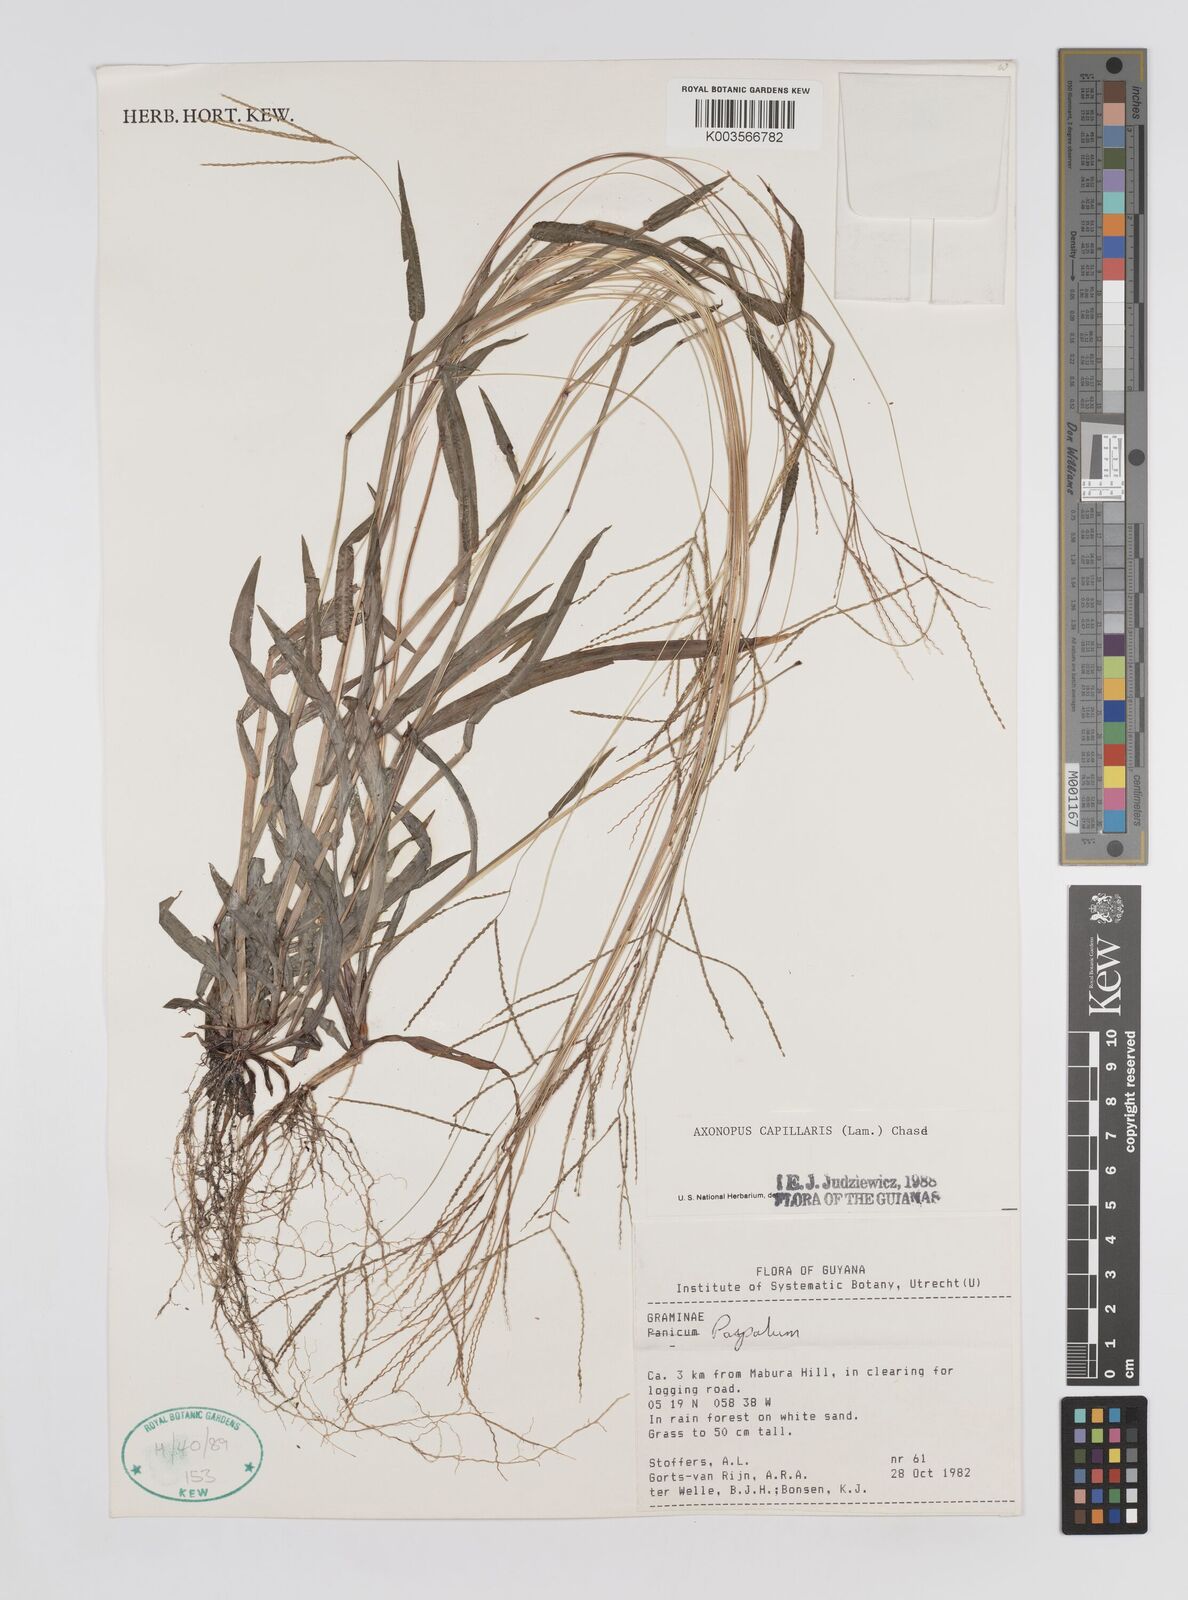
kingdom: Plantae
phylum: Tracheophyta
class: Liliopsida
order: Poales
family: Poaceae
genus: Axonopus
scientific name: Axonopus capillaris
